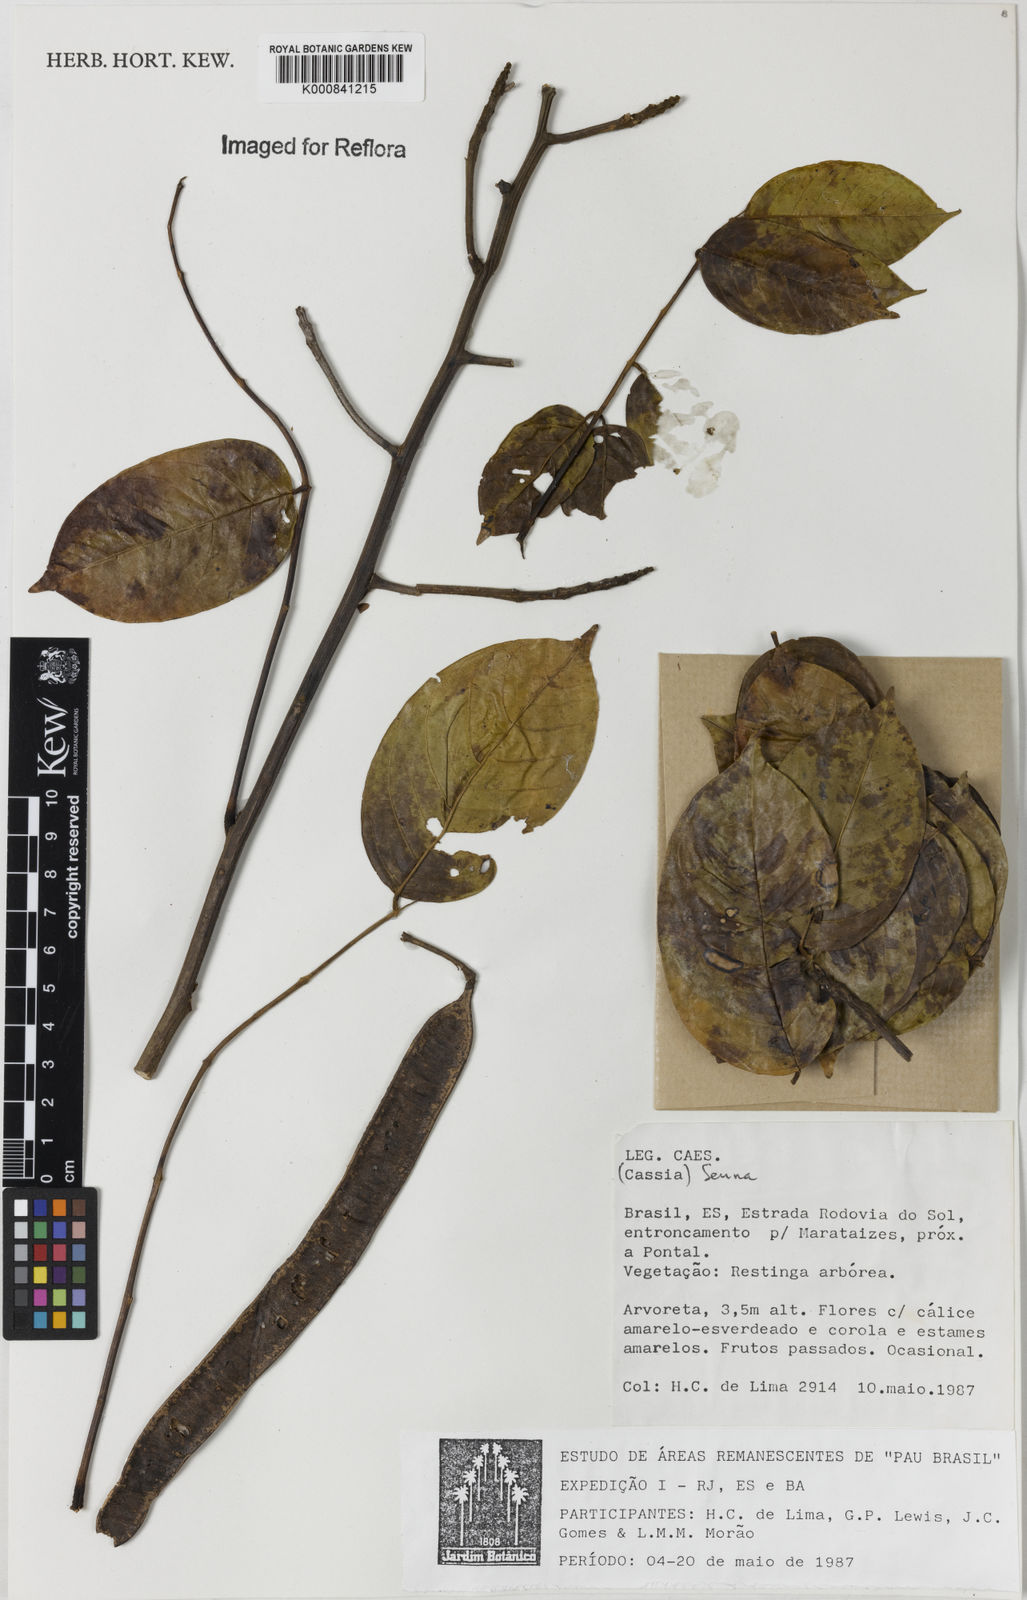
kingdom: Plantae
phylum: Tracheophyta
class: Magnoliopsida
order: Fabales
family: Fabaceae
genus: Senna
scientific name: Senna
